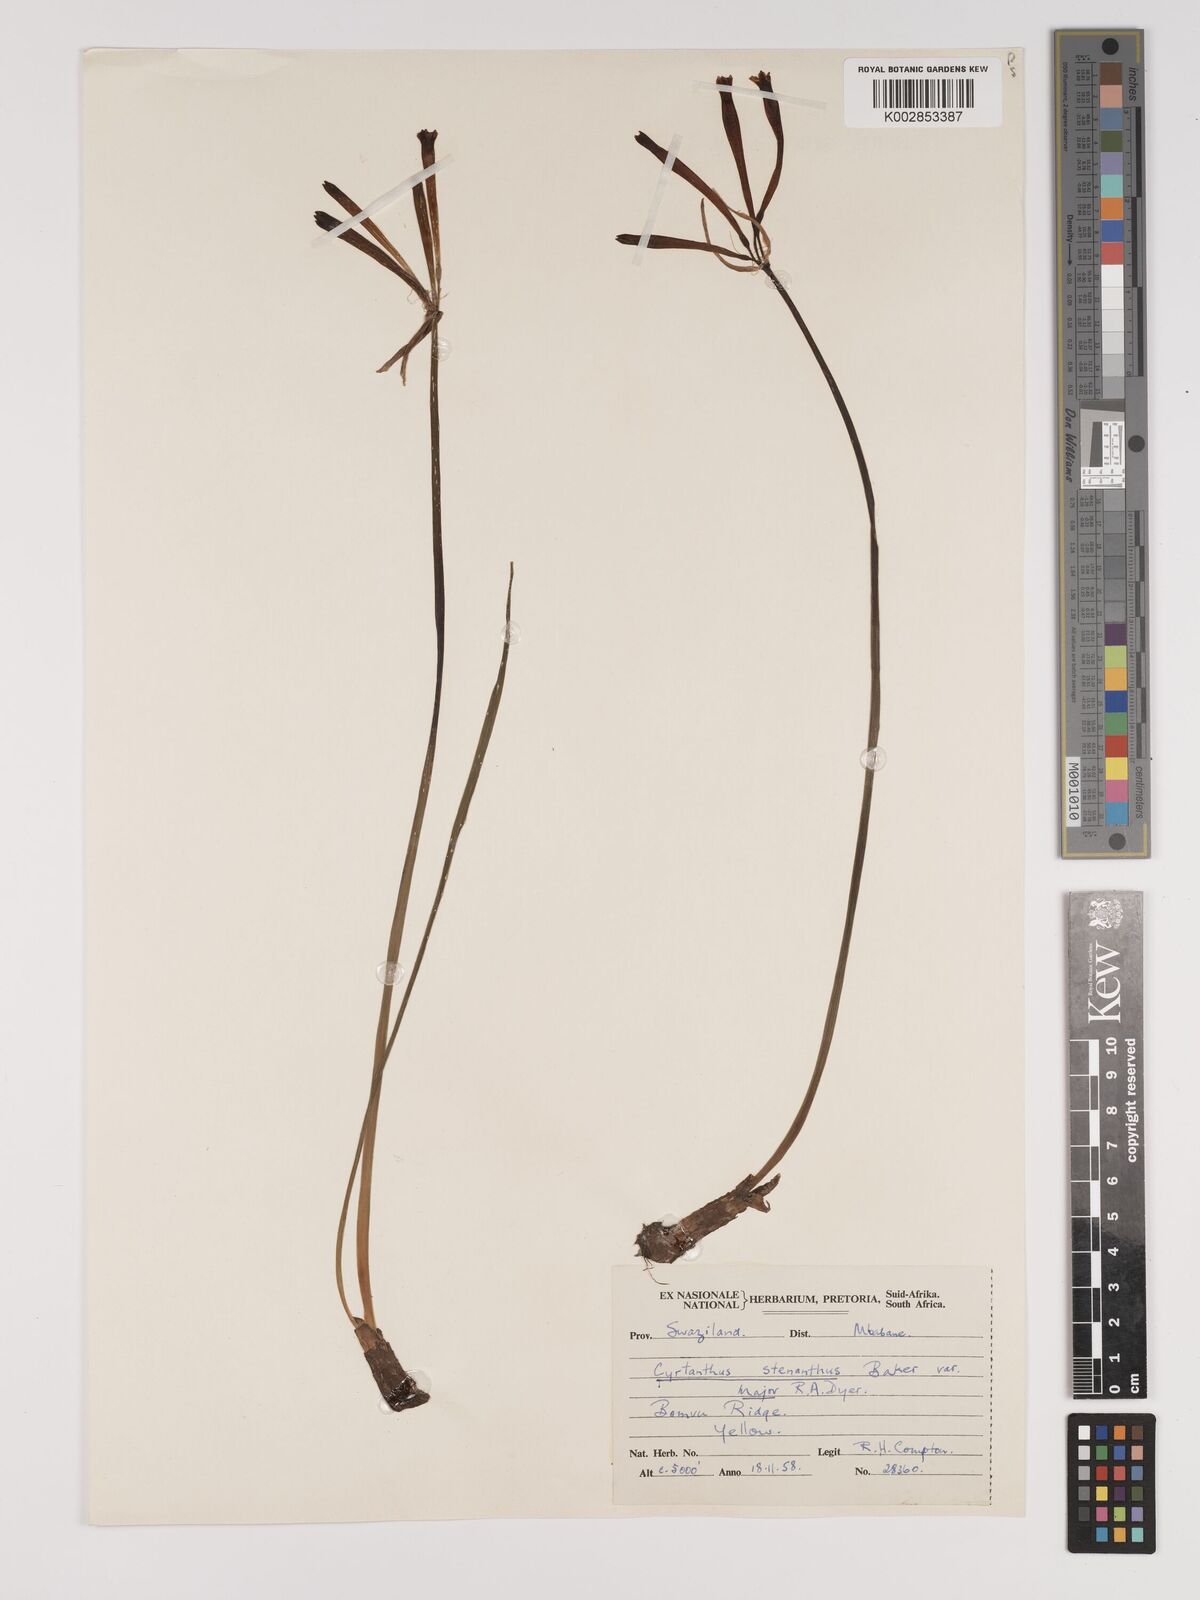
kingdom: Plantae
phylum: Tracheophyta
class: Liliopsida
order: Asparagales
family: Amaryllidaceae
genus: Cyrtanthus
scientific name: Cyrtanthus stenanthus
